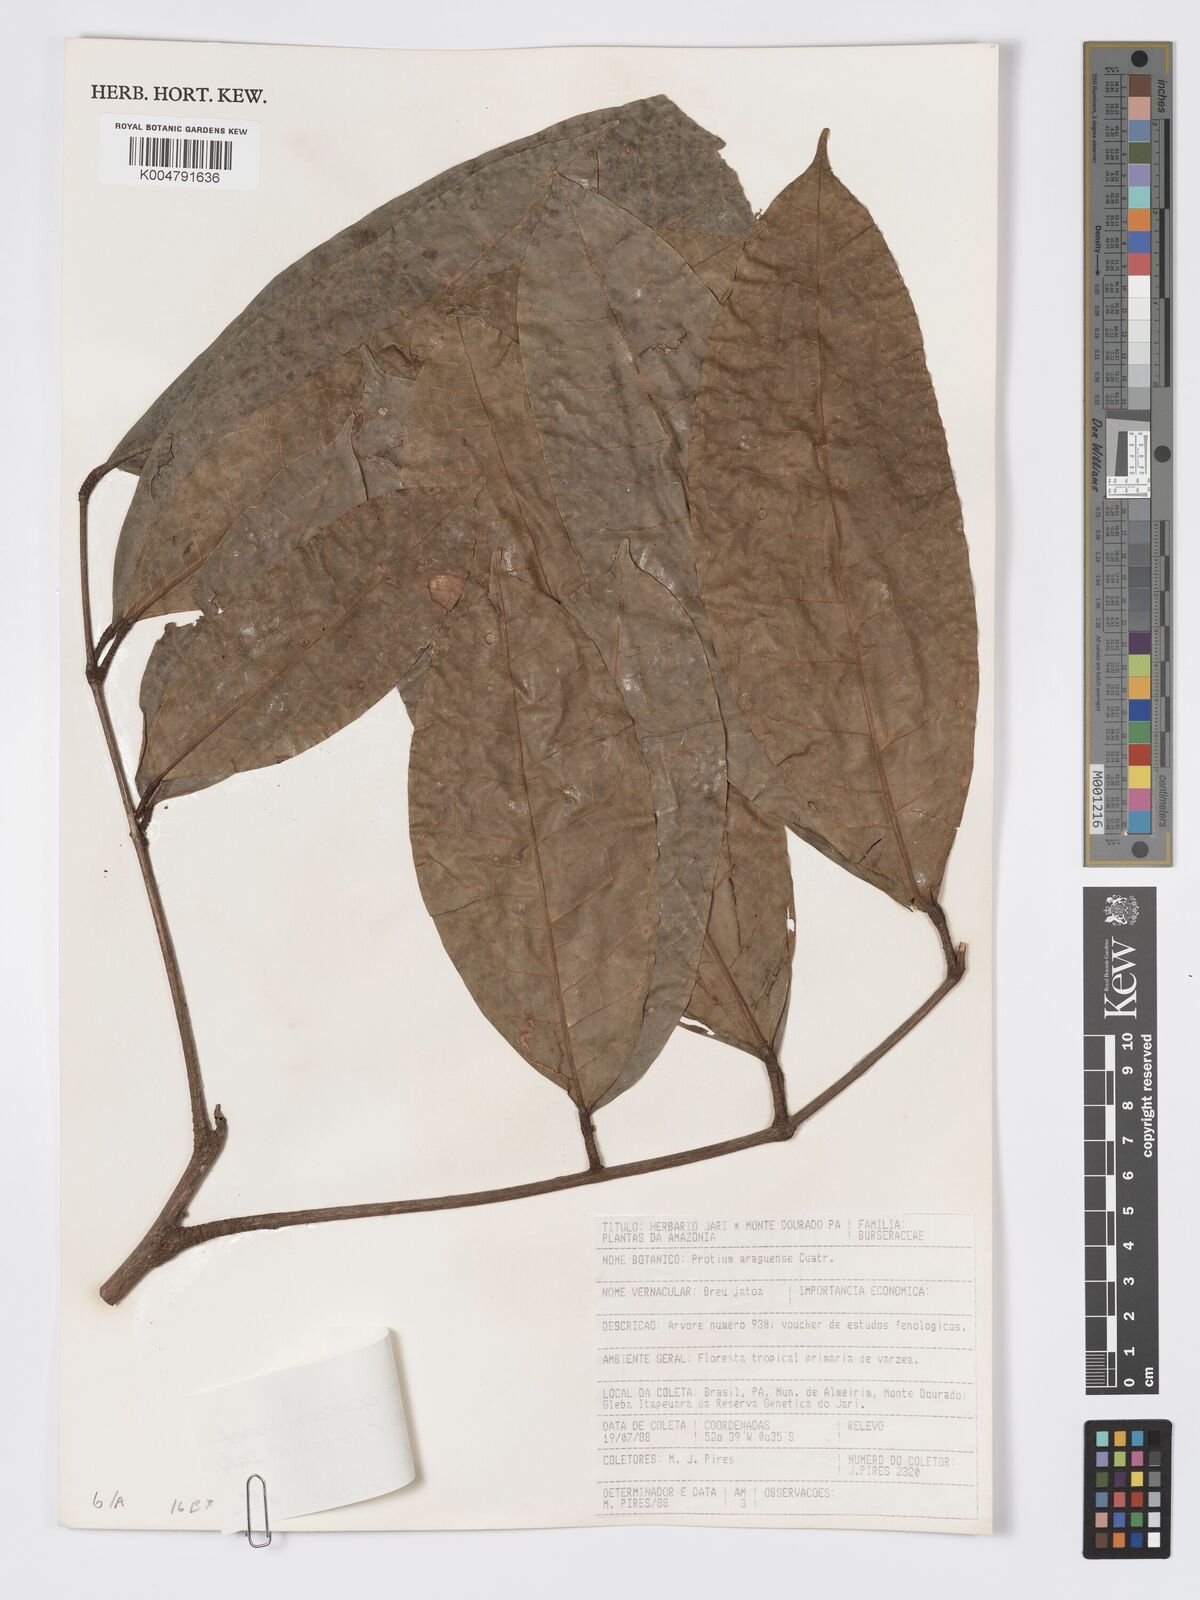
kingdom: Plantae
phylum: Tracheophyta
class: Magnoliopsida
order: Sapindales
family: Burseraceae
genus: Protium
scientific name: Protium opacum
